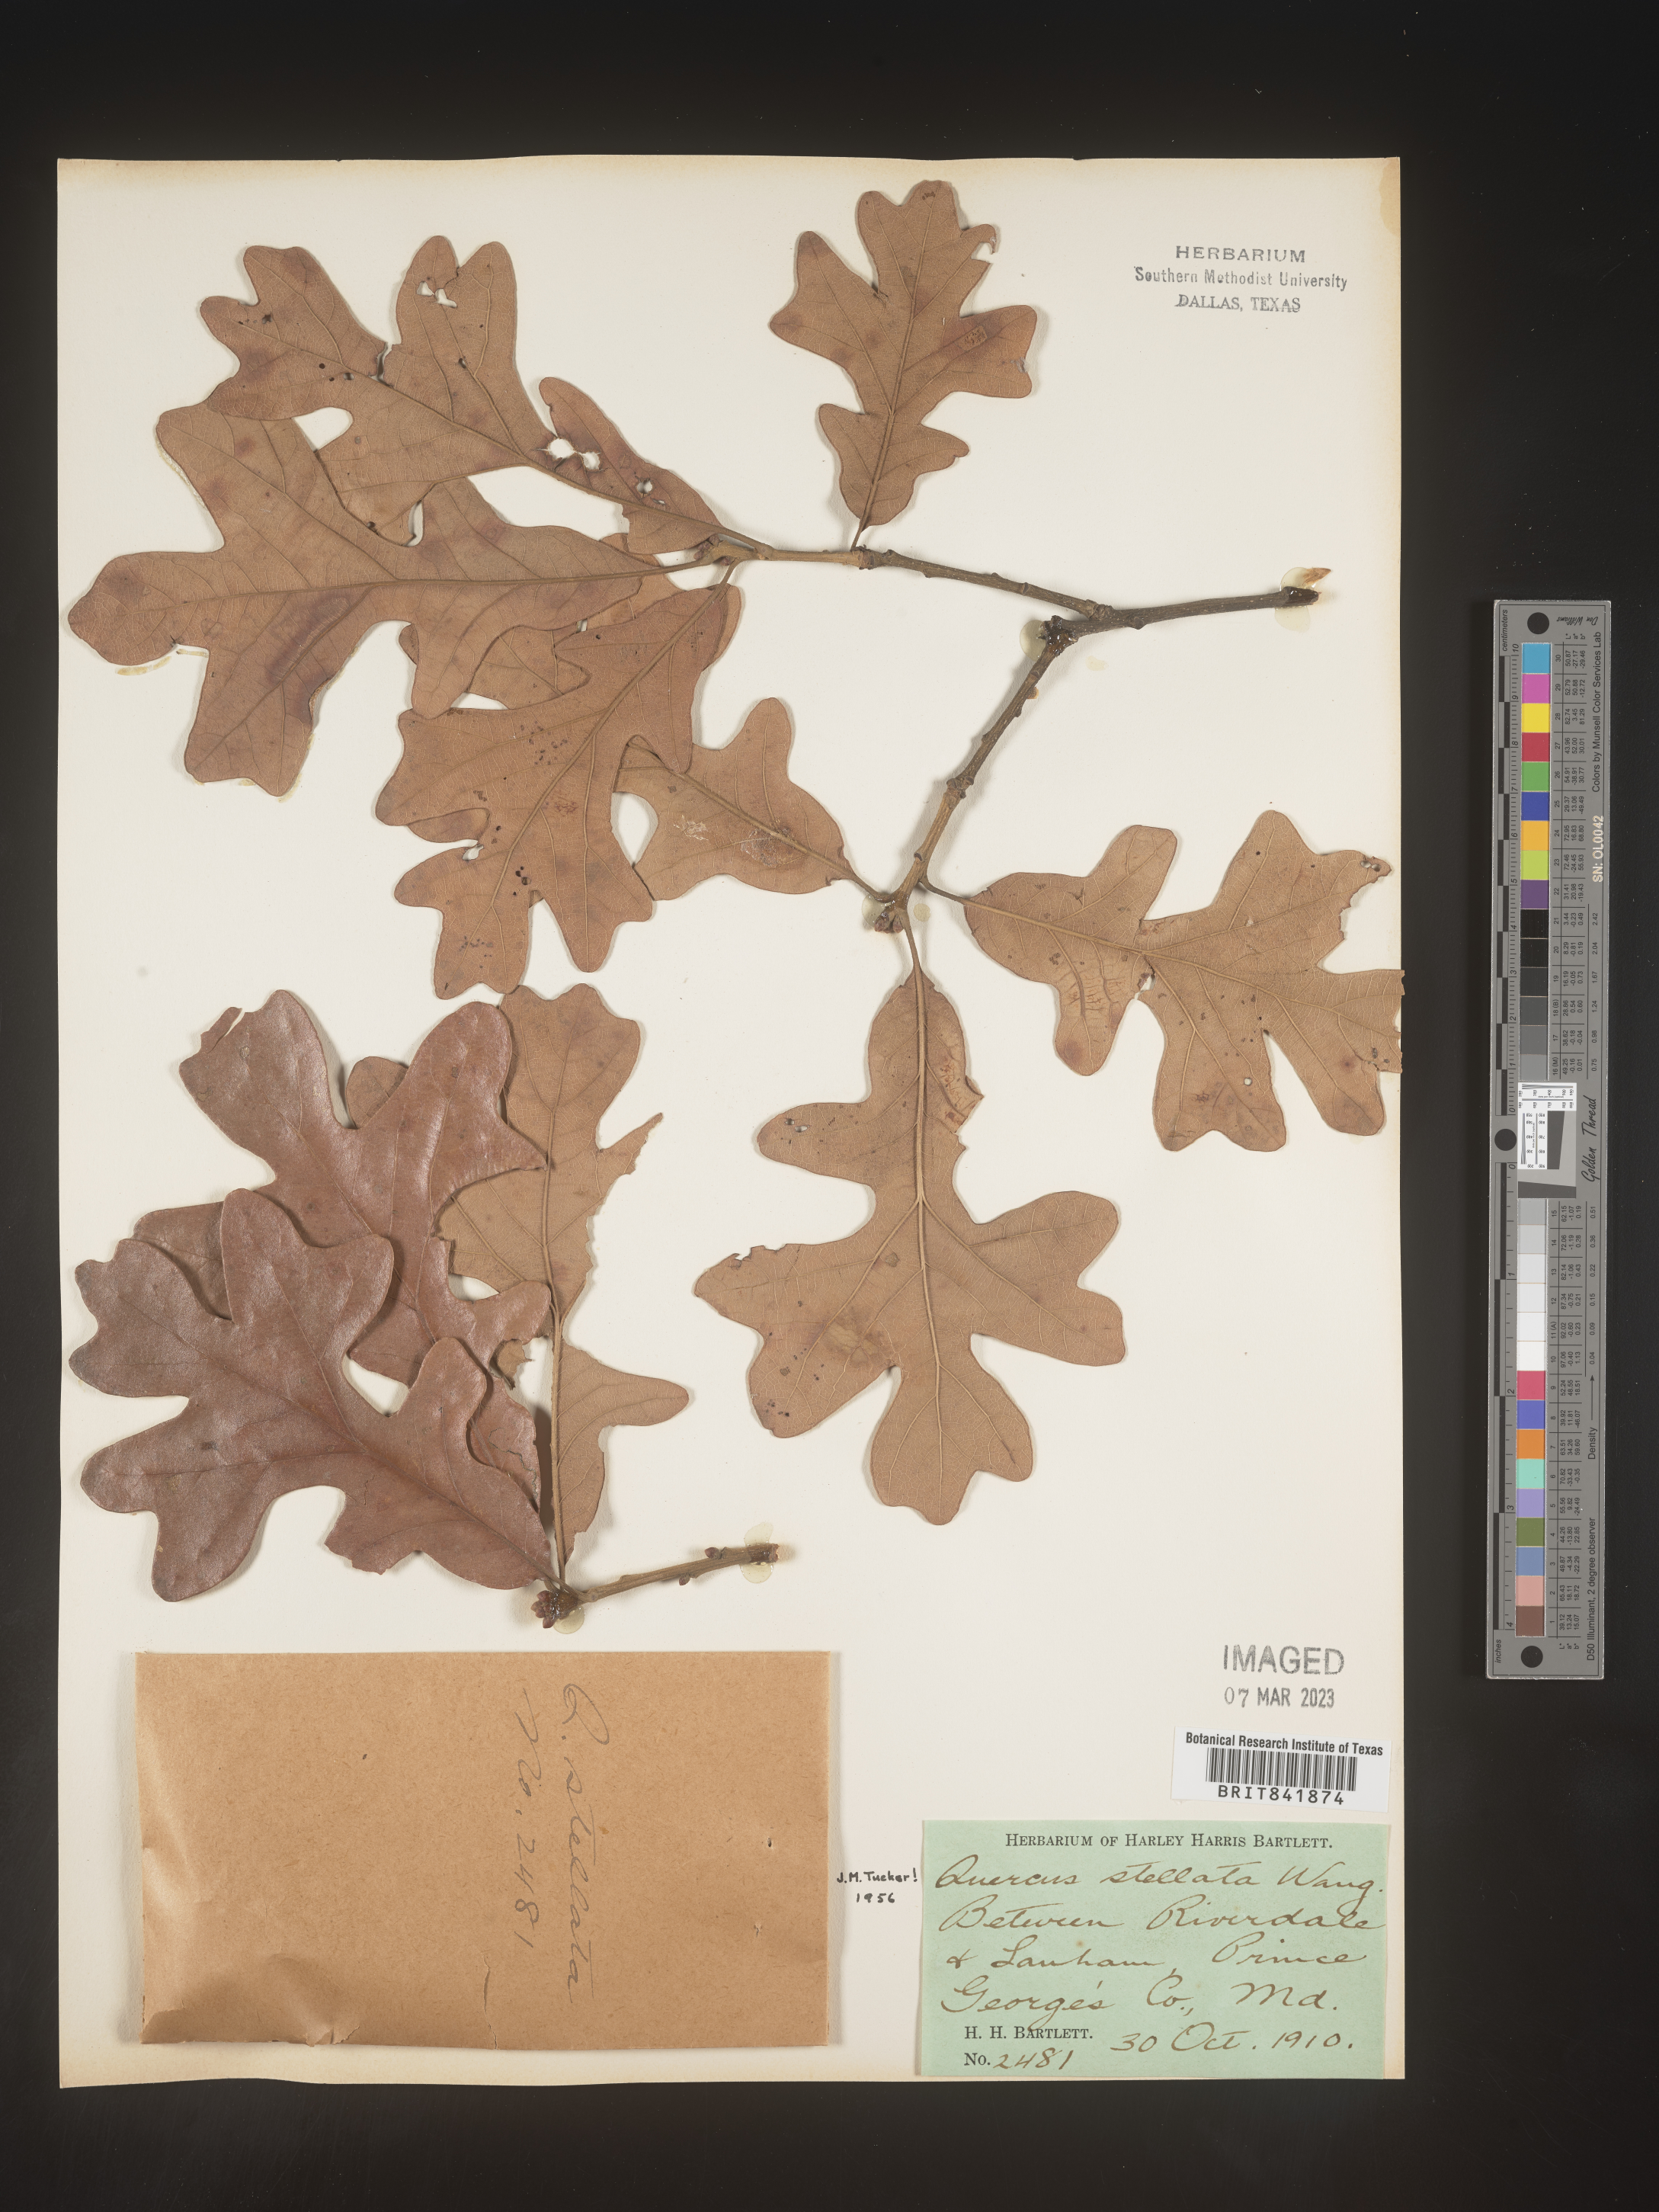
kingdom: Plantae
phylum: Tracheophyta
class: Magnoliopsida
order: Fagales
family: Fagaceae
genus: Quercus
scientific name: Quercus stellata
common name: Post oak
